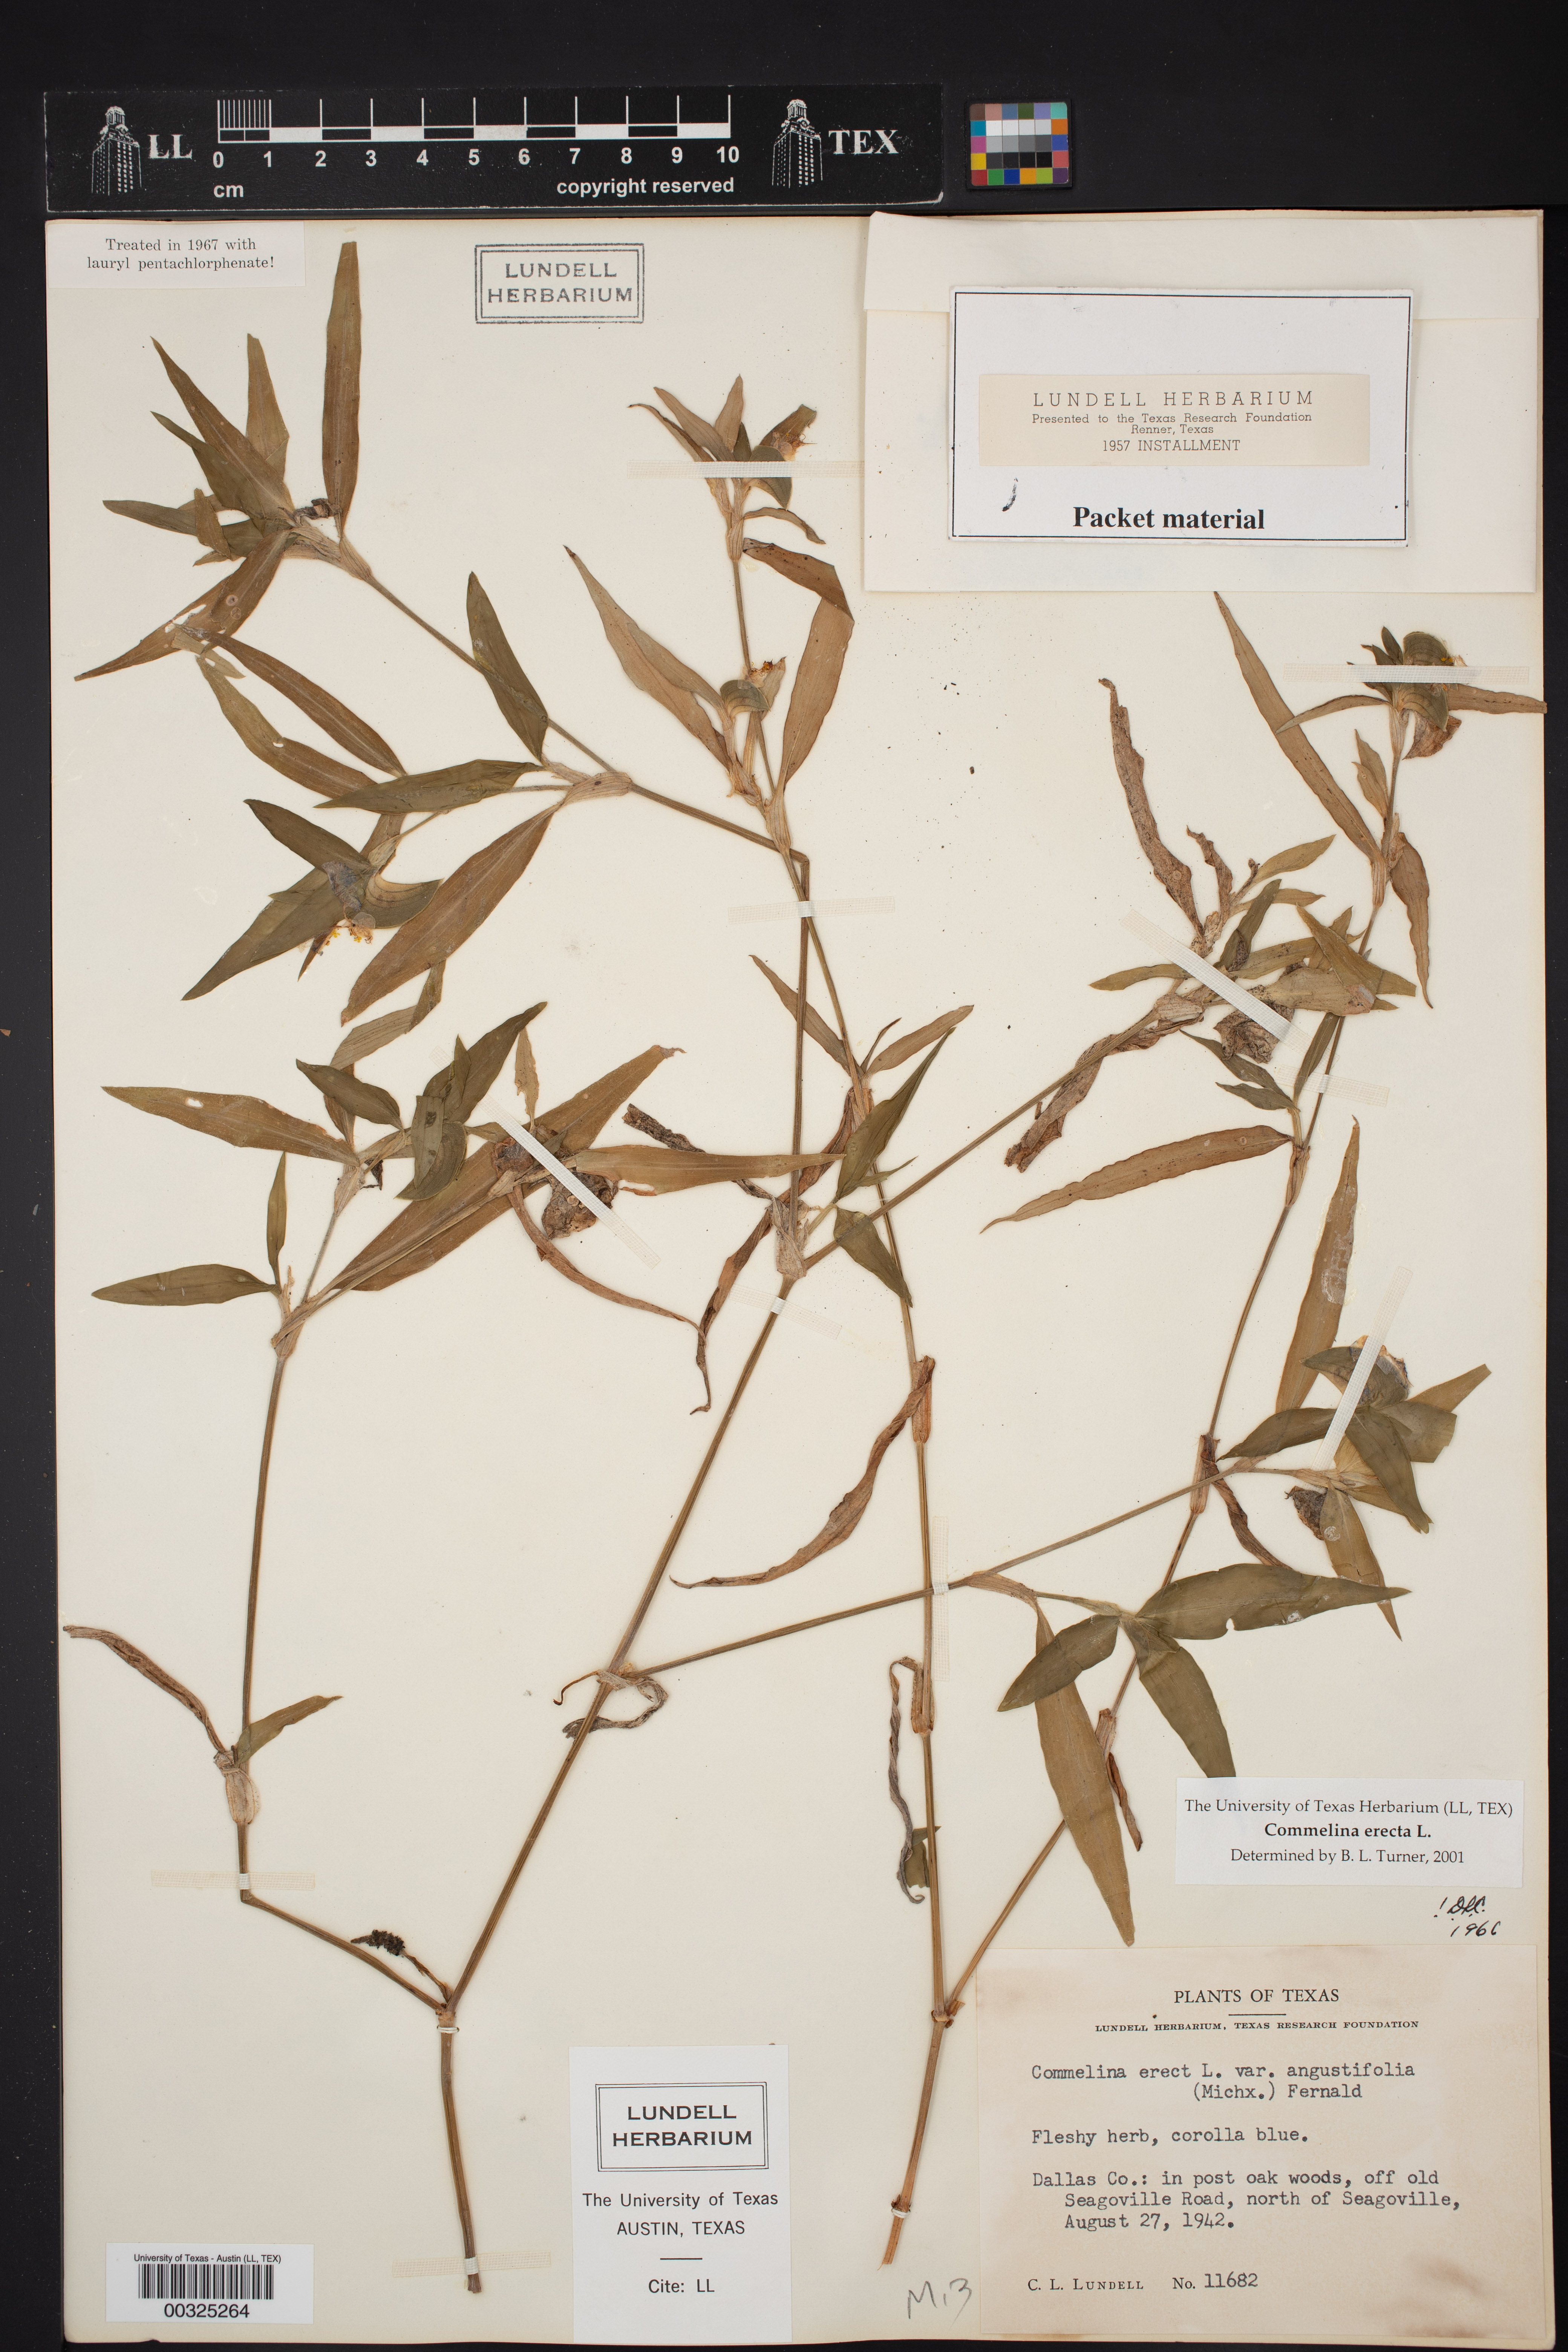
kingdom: Plantae
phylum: Tracheophyta
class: Liliopsida
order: Commelinales
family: Commelinaceae
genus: Commelina
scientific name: Commelina erecta
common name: Blousel blommetjie
